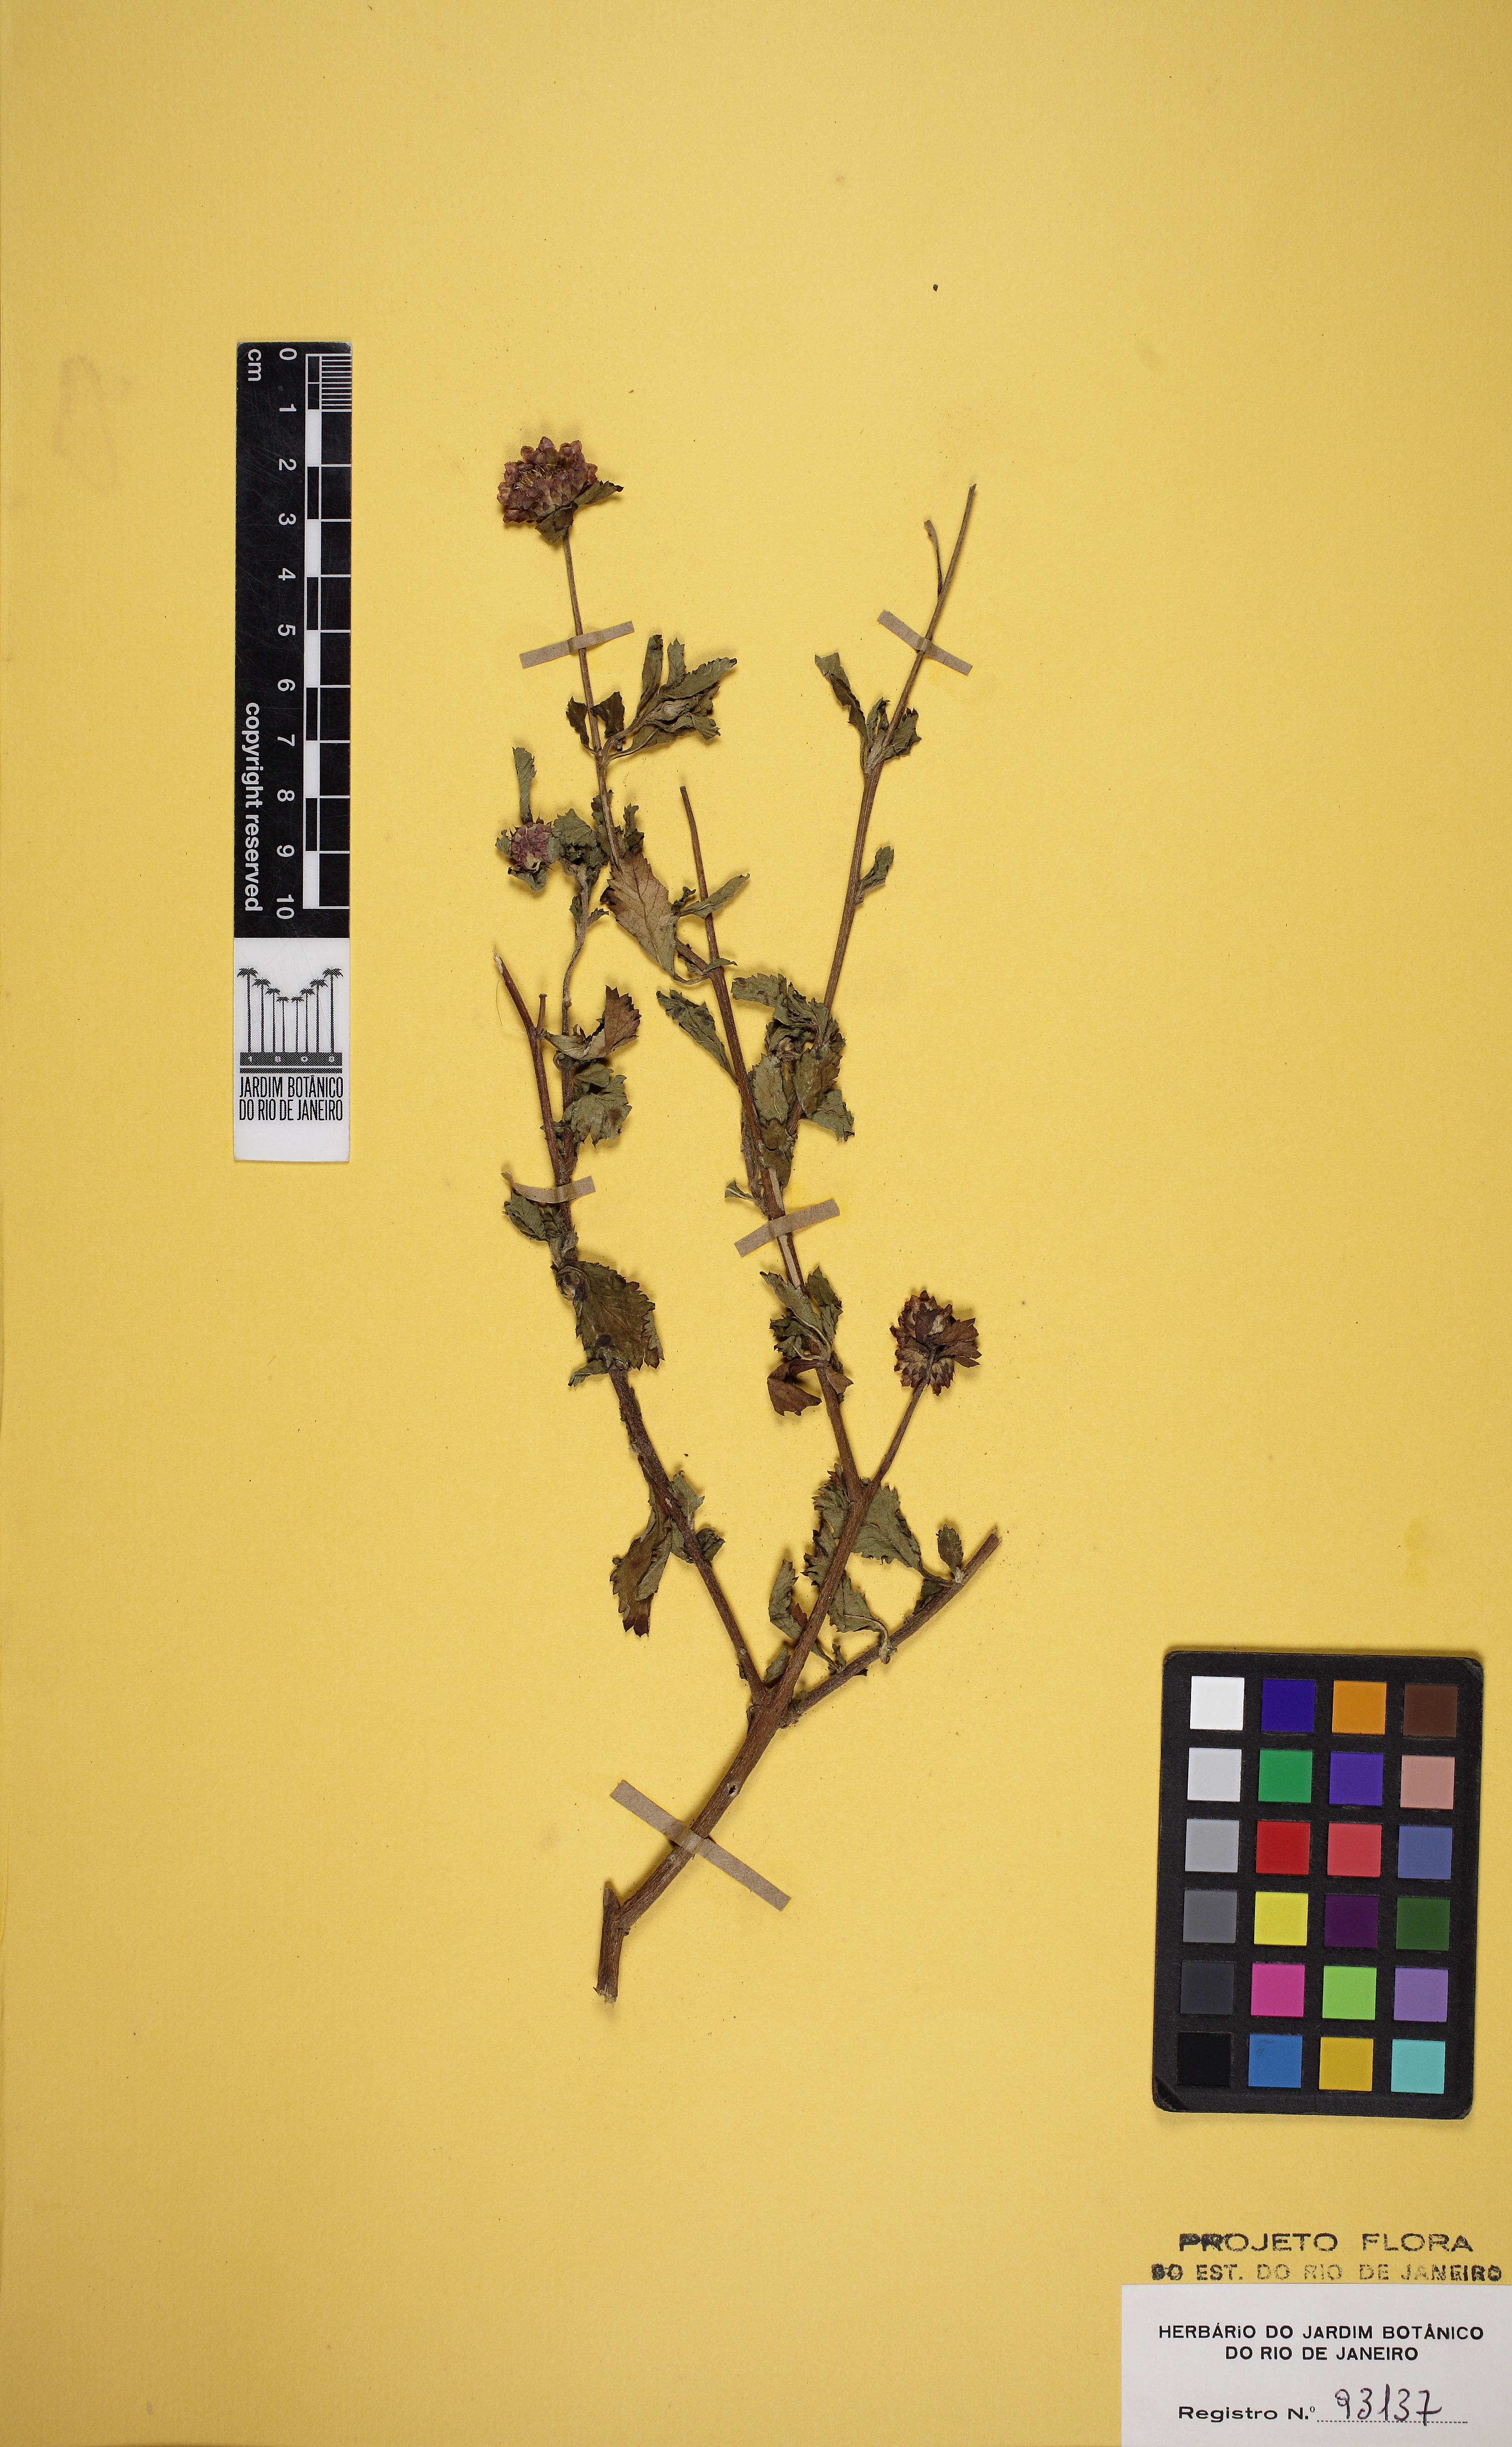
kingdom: Plantae
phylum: Tracheophyta
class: Magnoliopsida
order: Asterales
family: Asteraceae
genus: Centratherum
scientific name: Centratherum punctatum
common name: Larkdaisy
